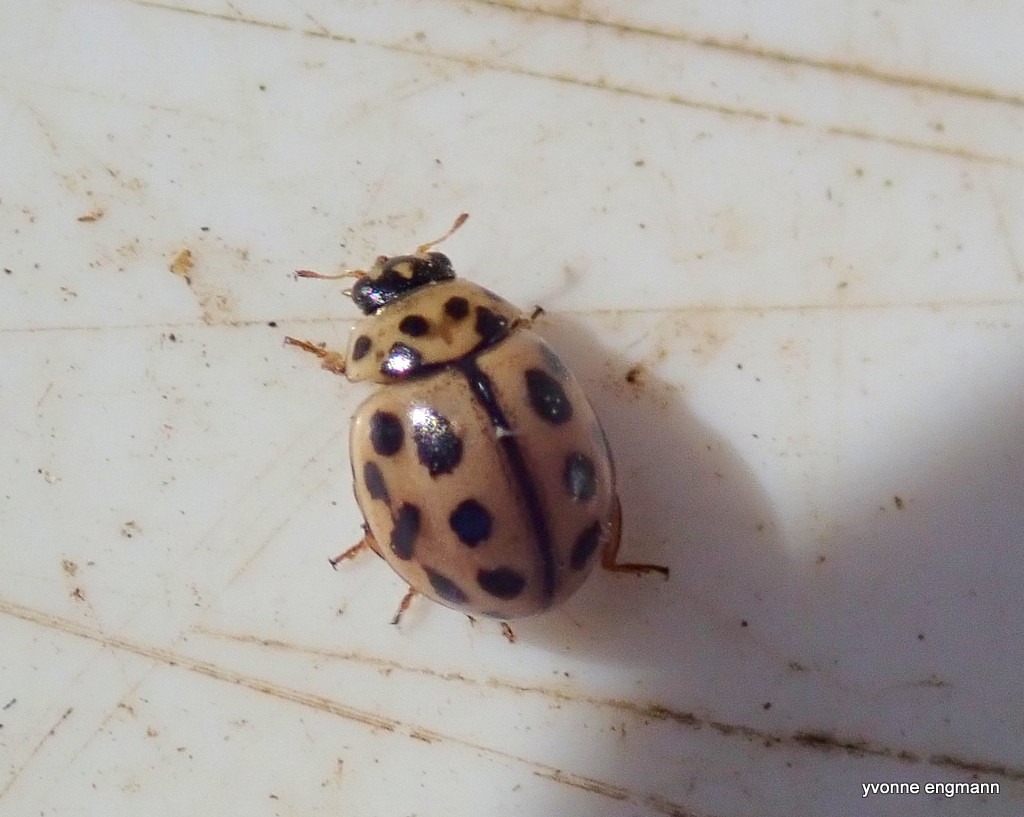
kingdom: Animalia
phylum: Arthropoda
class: Insecta
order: Coleoptera
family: Coccinellidae
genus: Tytthaspis
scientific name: Tytthaspis sedecimpunctata
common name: Sekstenprikket mariehøne
